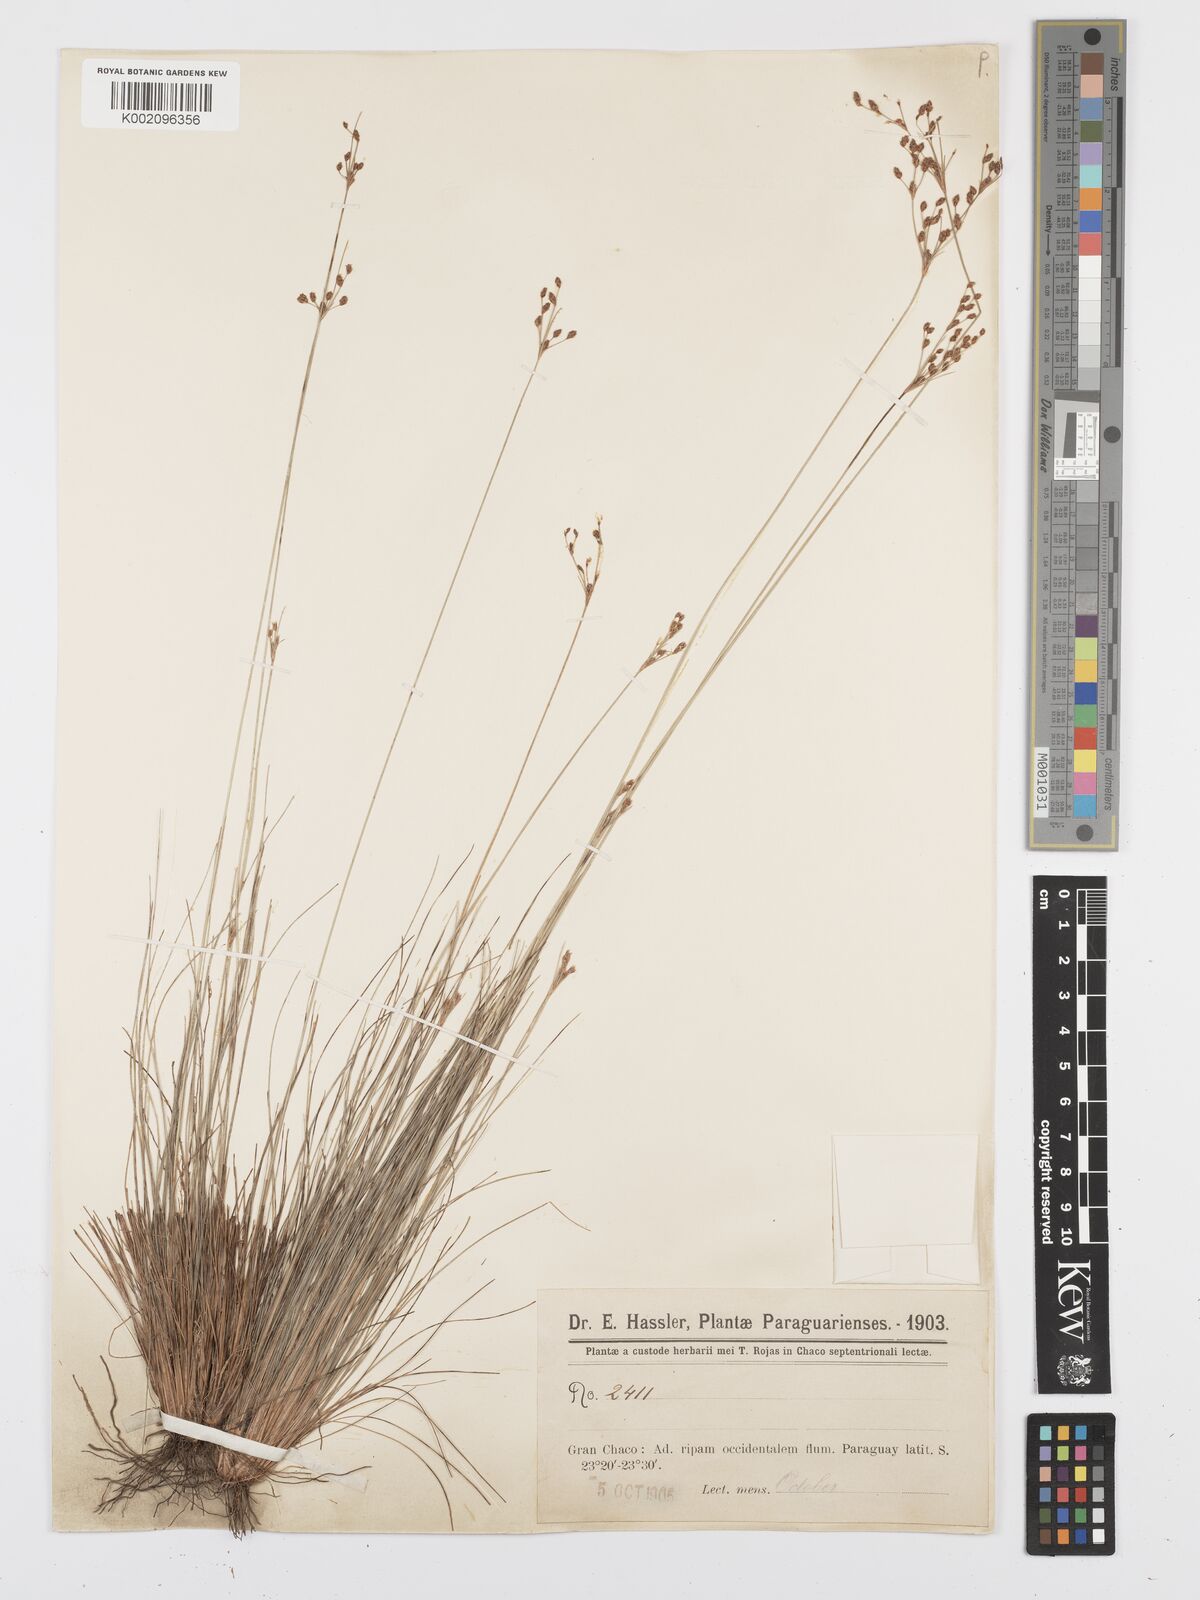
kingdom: Plantae
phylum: Tracheophyta
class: Liliopsida
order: Poales
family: Cyperaceae
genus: Bulbostylis
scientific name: Bulbostylis scabra
